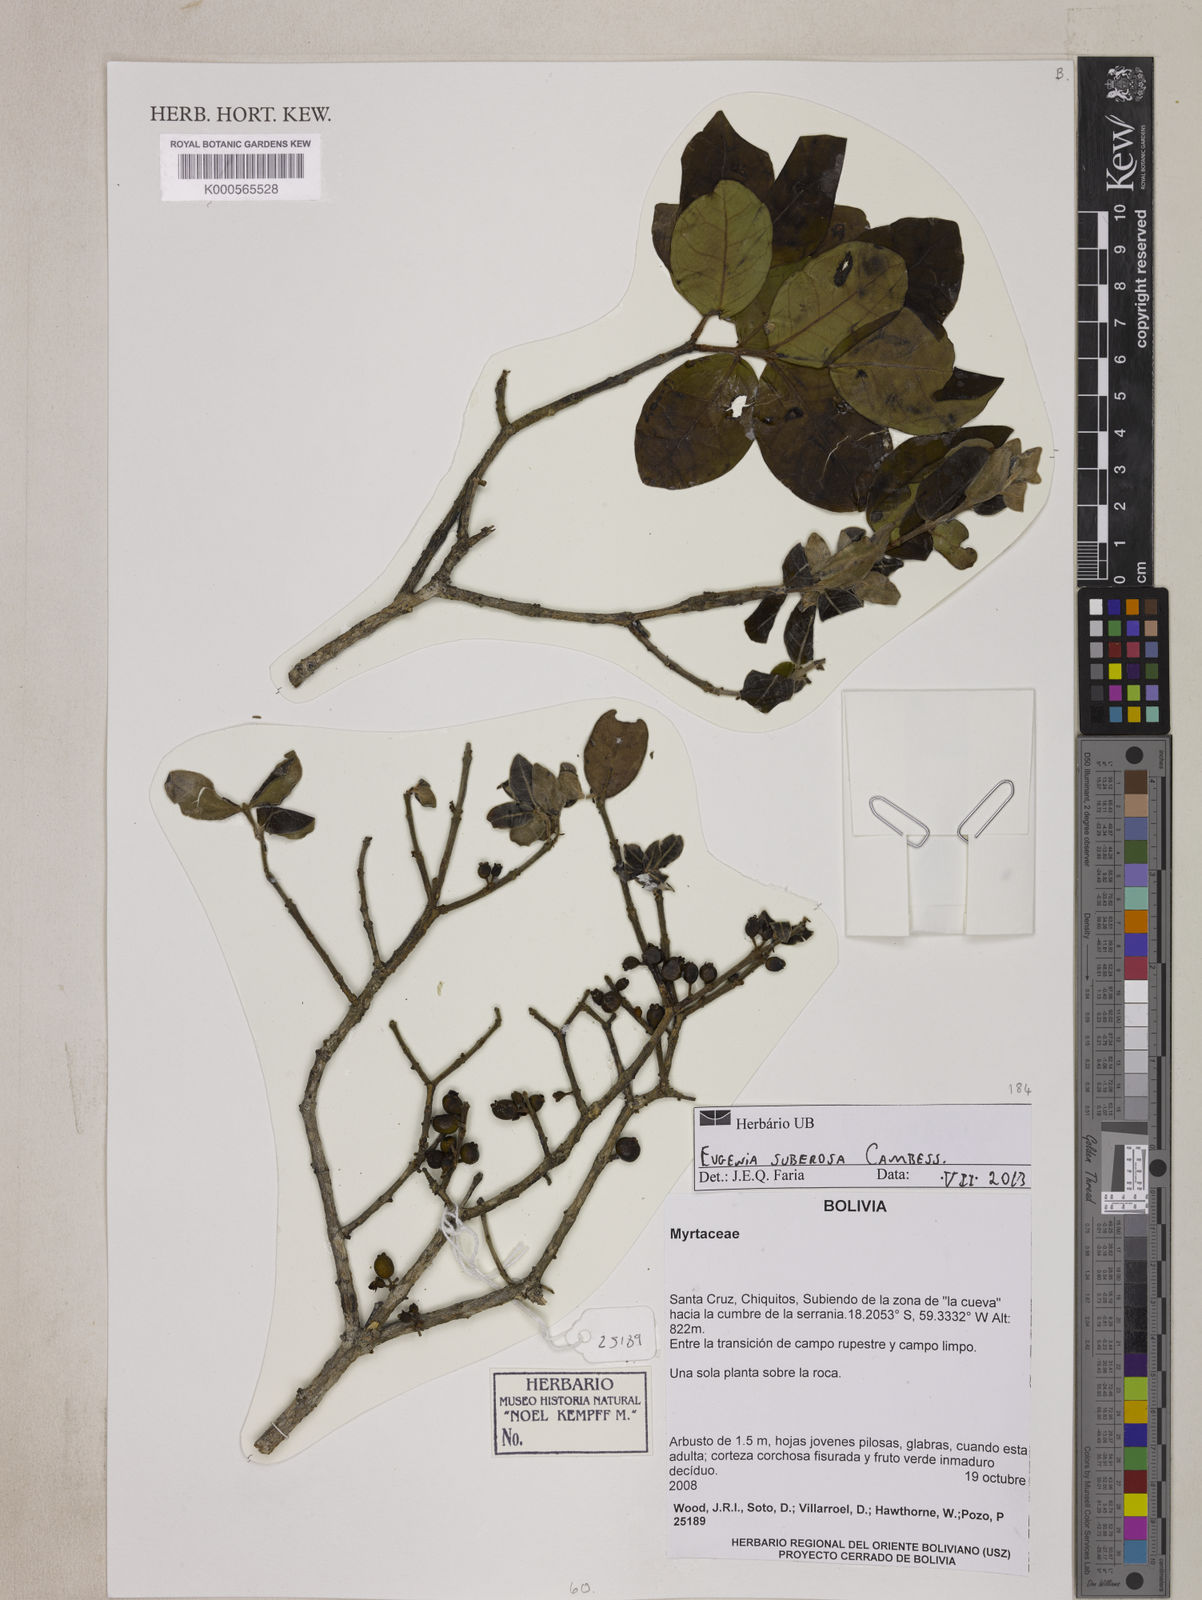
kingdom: Plantae
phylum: Tracheophyta
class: Magnoliopsida
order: Myrtales
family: Myrtaceae
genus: Eugenia
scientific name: Eugenia suberosa
